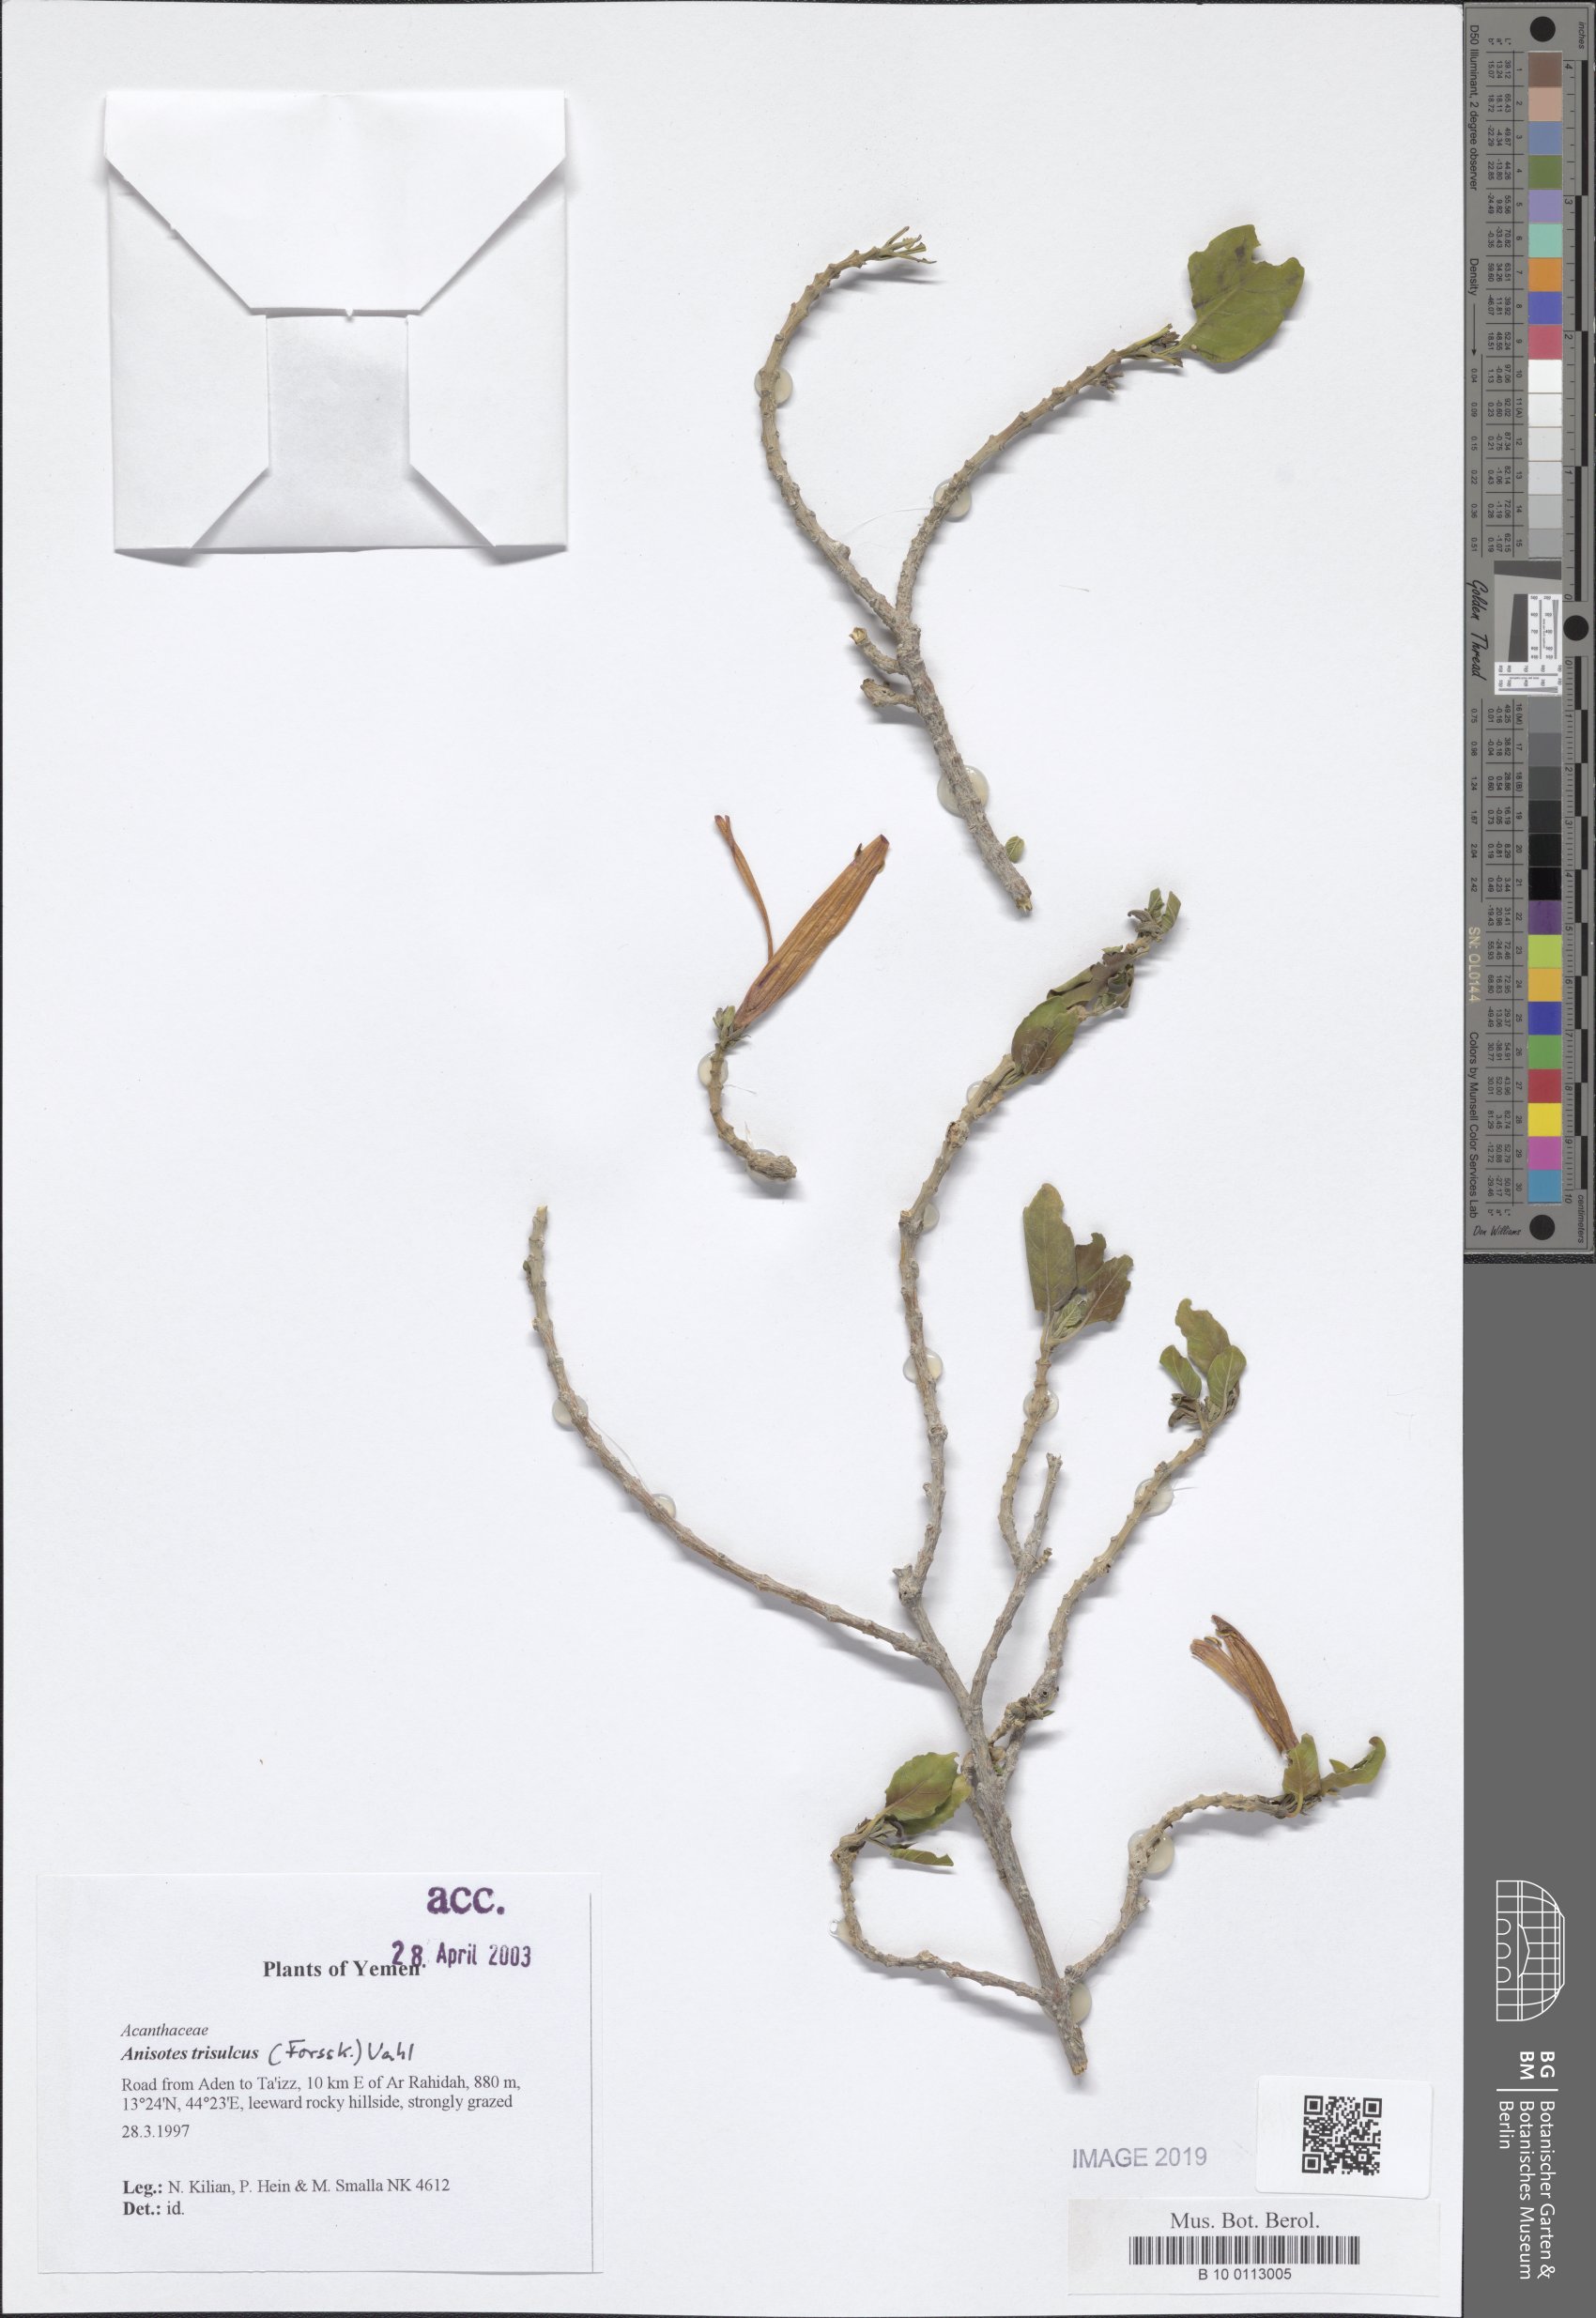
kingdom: Plantae
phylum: Tracheophyta
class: Magnoliopsida
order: Lamiales
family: Acanthaceae
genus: Anisotes
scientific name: Anisotes trisulcus
